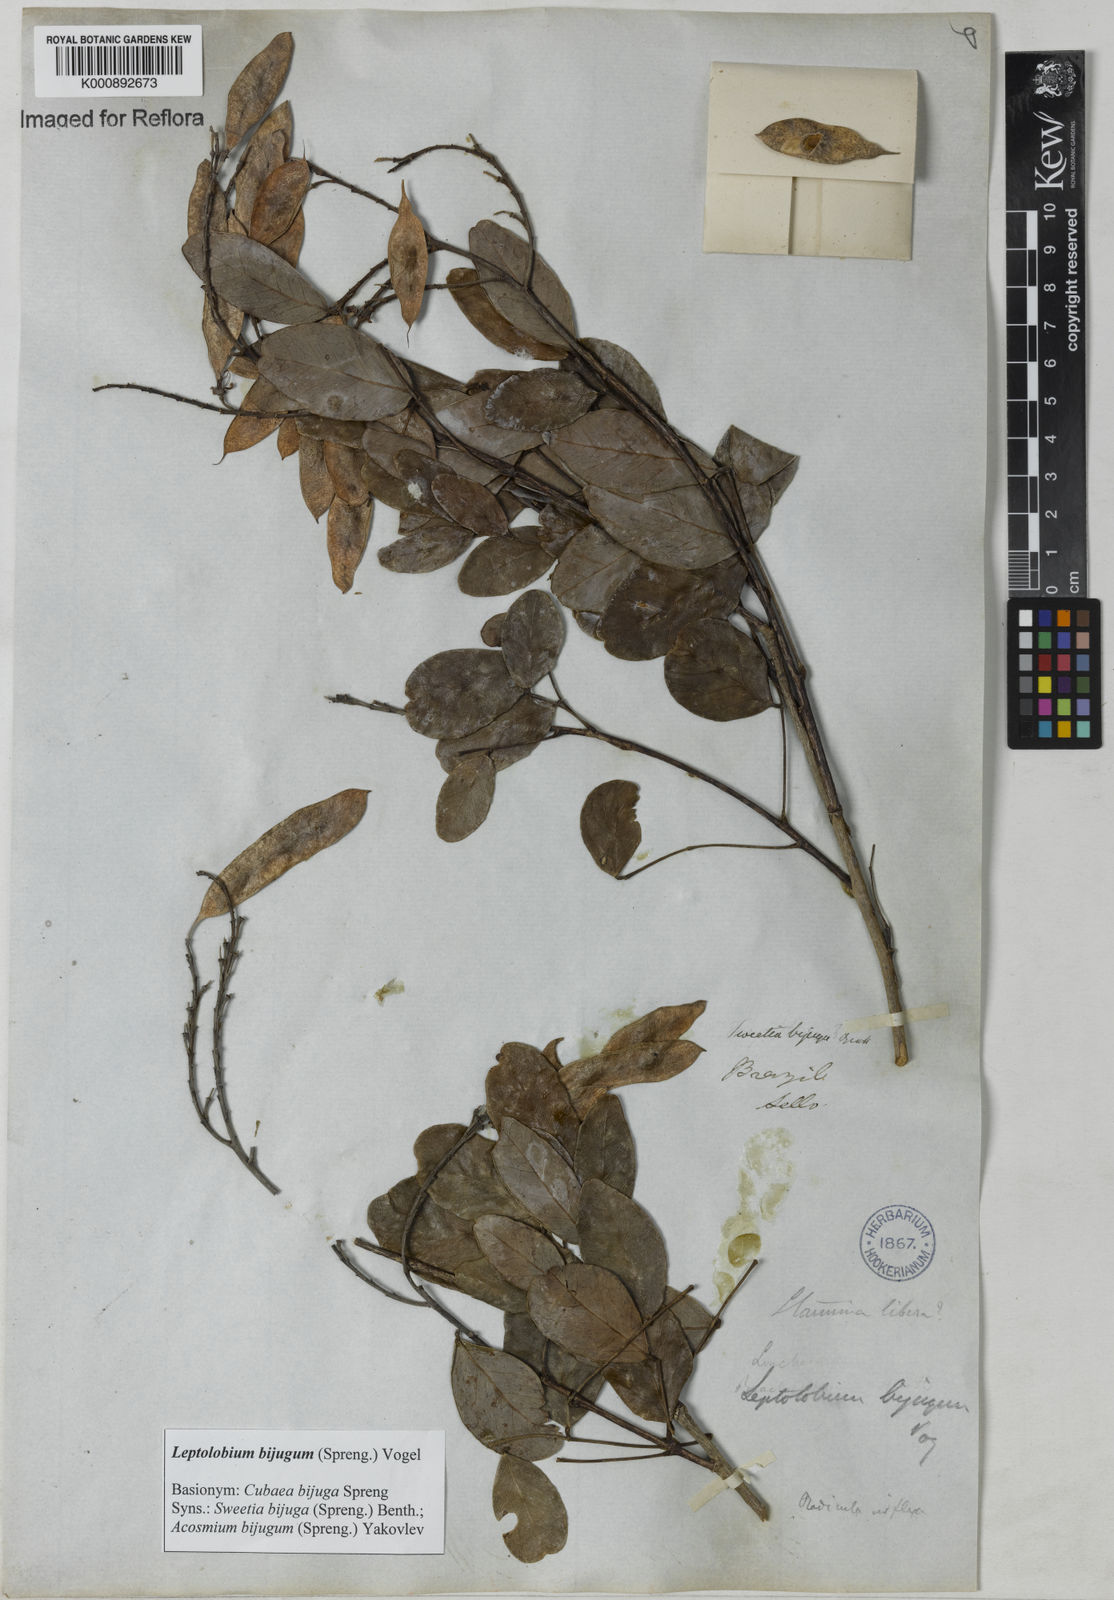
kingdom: Plantae
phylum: Tracheophyta
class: Magnoliopsida
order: Fabales
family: Fabaceae
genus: Leptolobium
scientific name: Leptolobium bijugum
